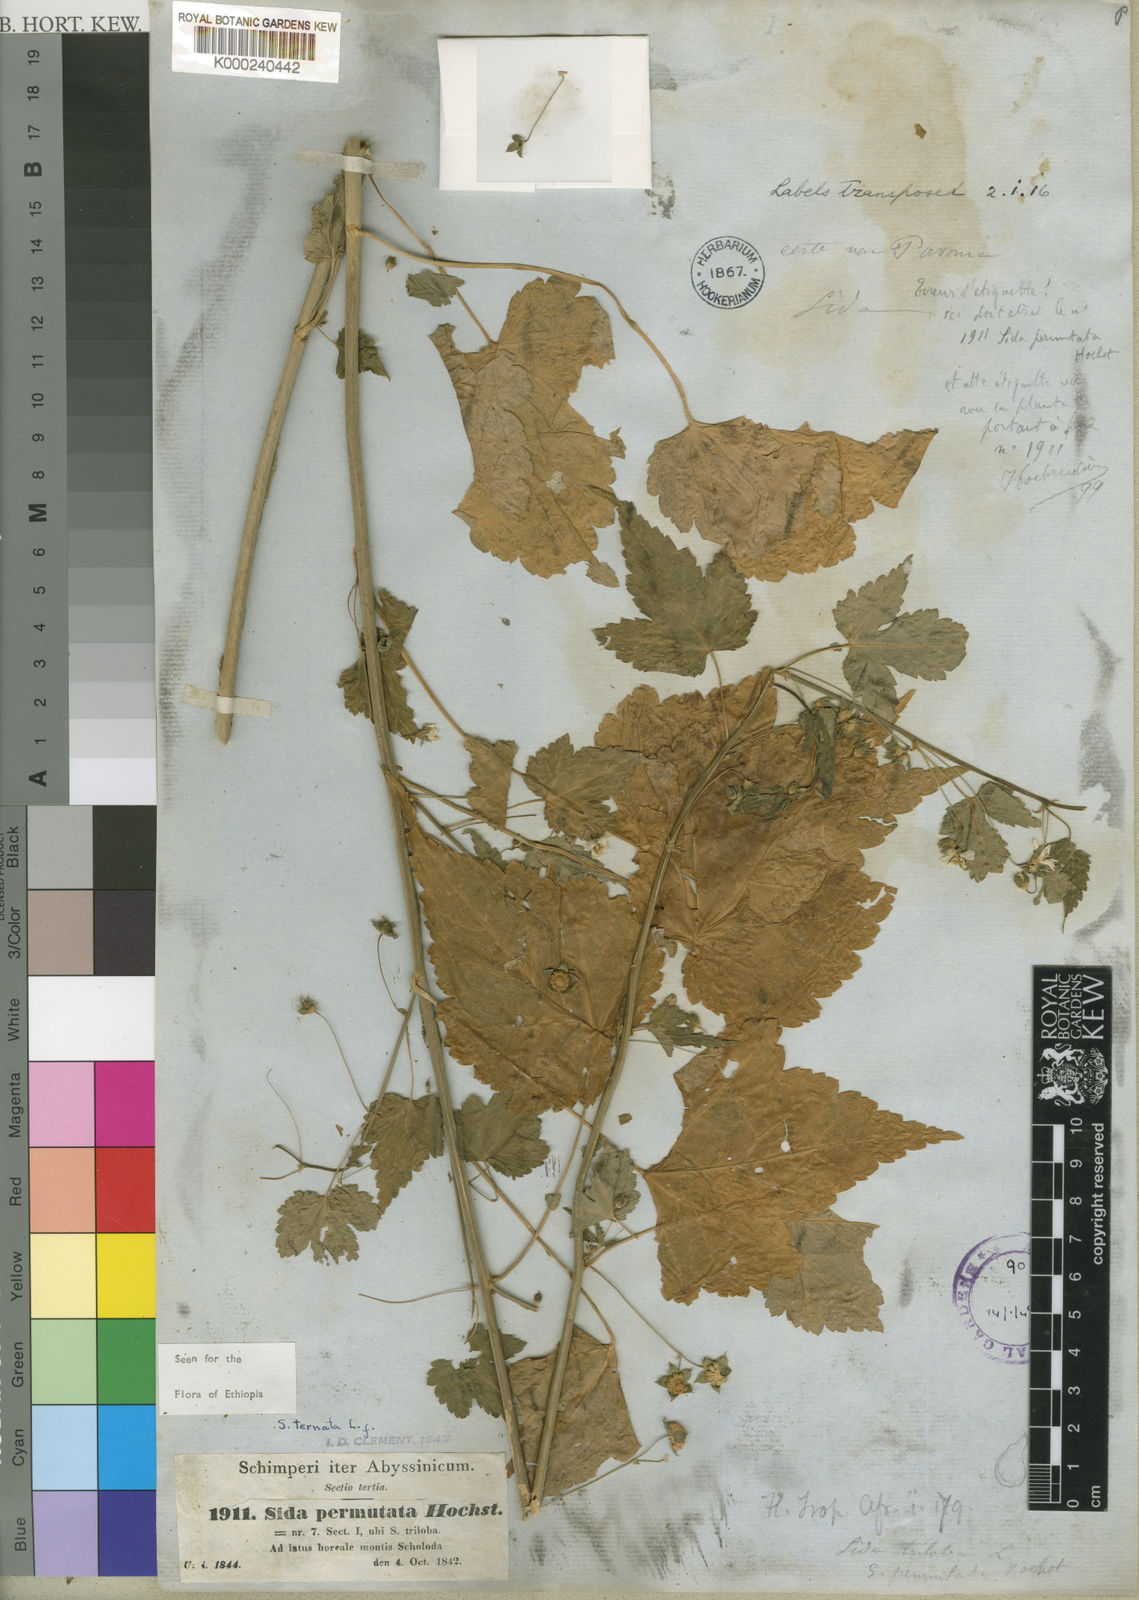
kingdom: Plantae
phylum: Tracheophyta
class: Magnoliopsida
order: Malvales
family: Malvaceae
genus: Sida
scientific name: Sida ternata
